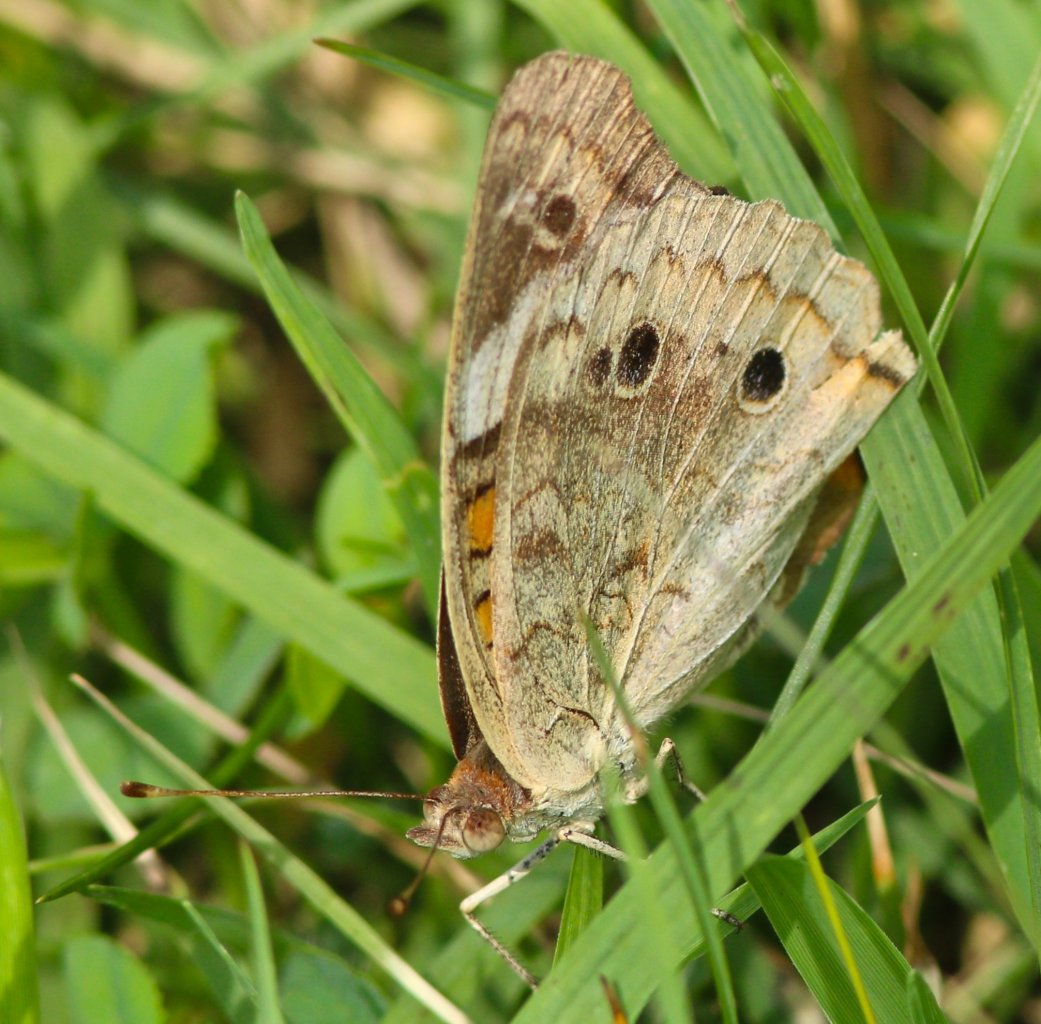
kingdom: Animalia
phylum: Arthropoda
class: Insecta
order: Lepidoptera
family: Nymphalidae
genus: Junonia
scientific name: Junonia coenia
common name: Common Buckeye
